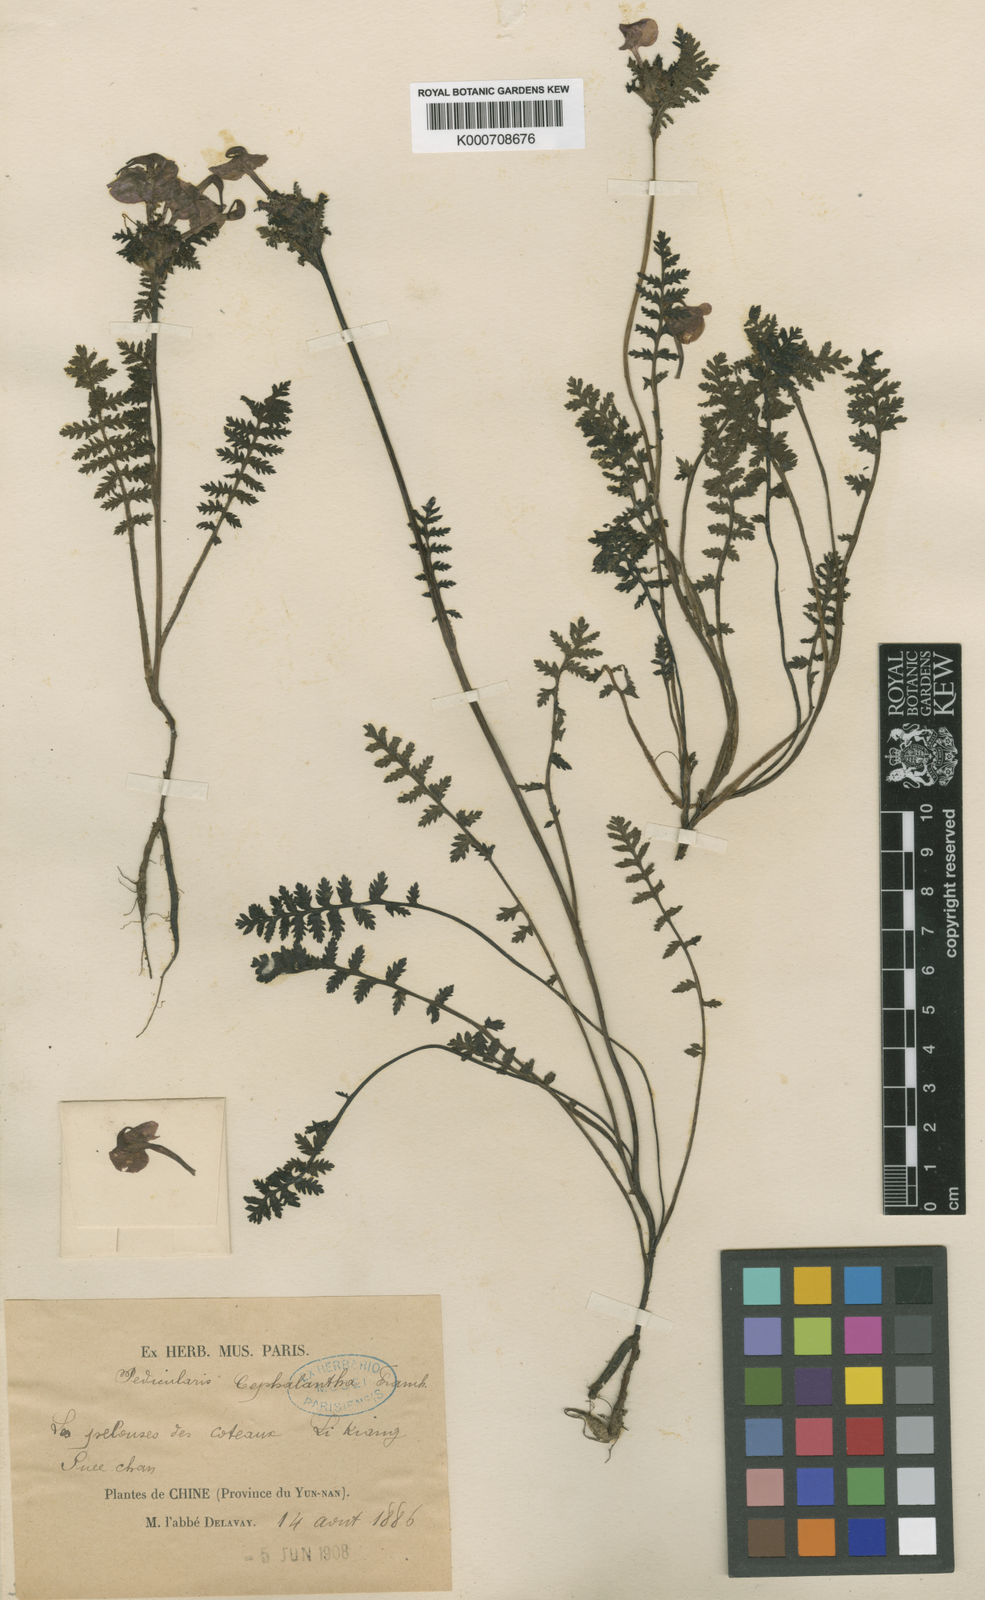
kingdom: Plantae
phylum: Tracheophyta
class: Magnoliopsida
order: Lamiales
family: Orobanchaceae
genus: Pedicularis
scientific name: Pedicularis cephalantha
